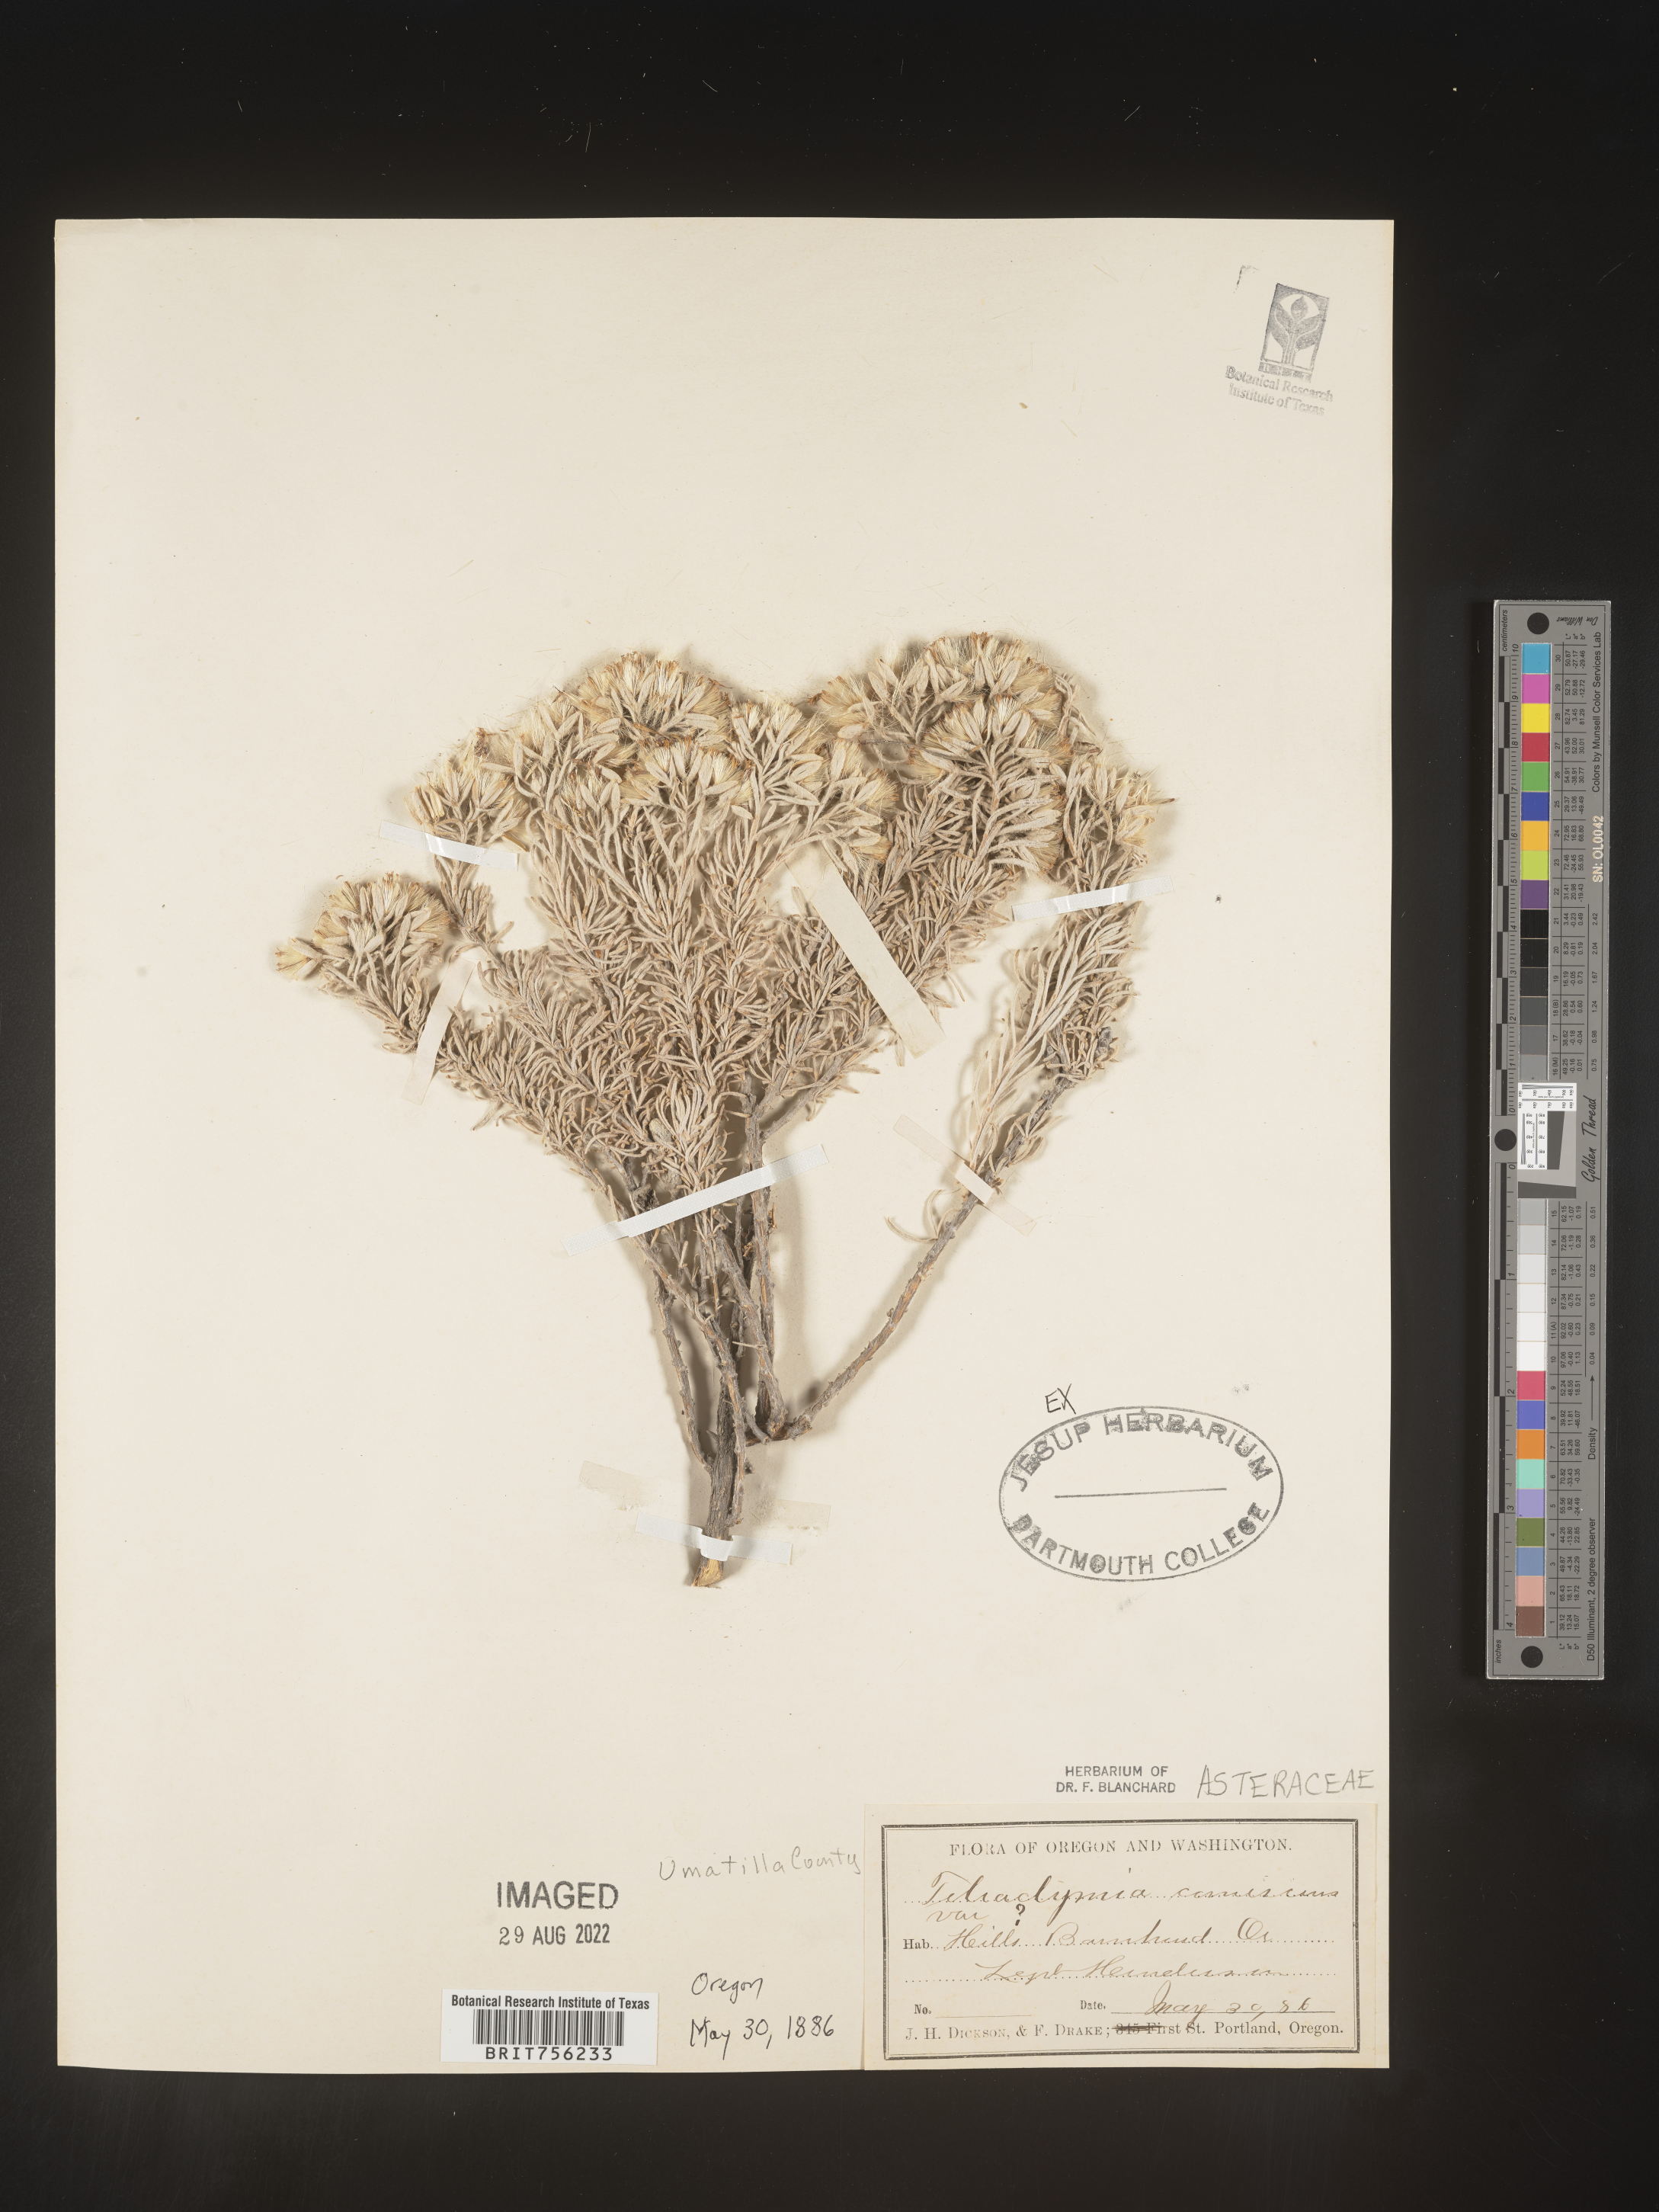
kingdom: Plantae
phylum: Tracheophyta
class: Magnoliopsida
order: Asterales
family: Asteraceae
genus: Tetradymia
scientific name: Tetradymia
